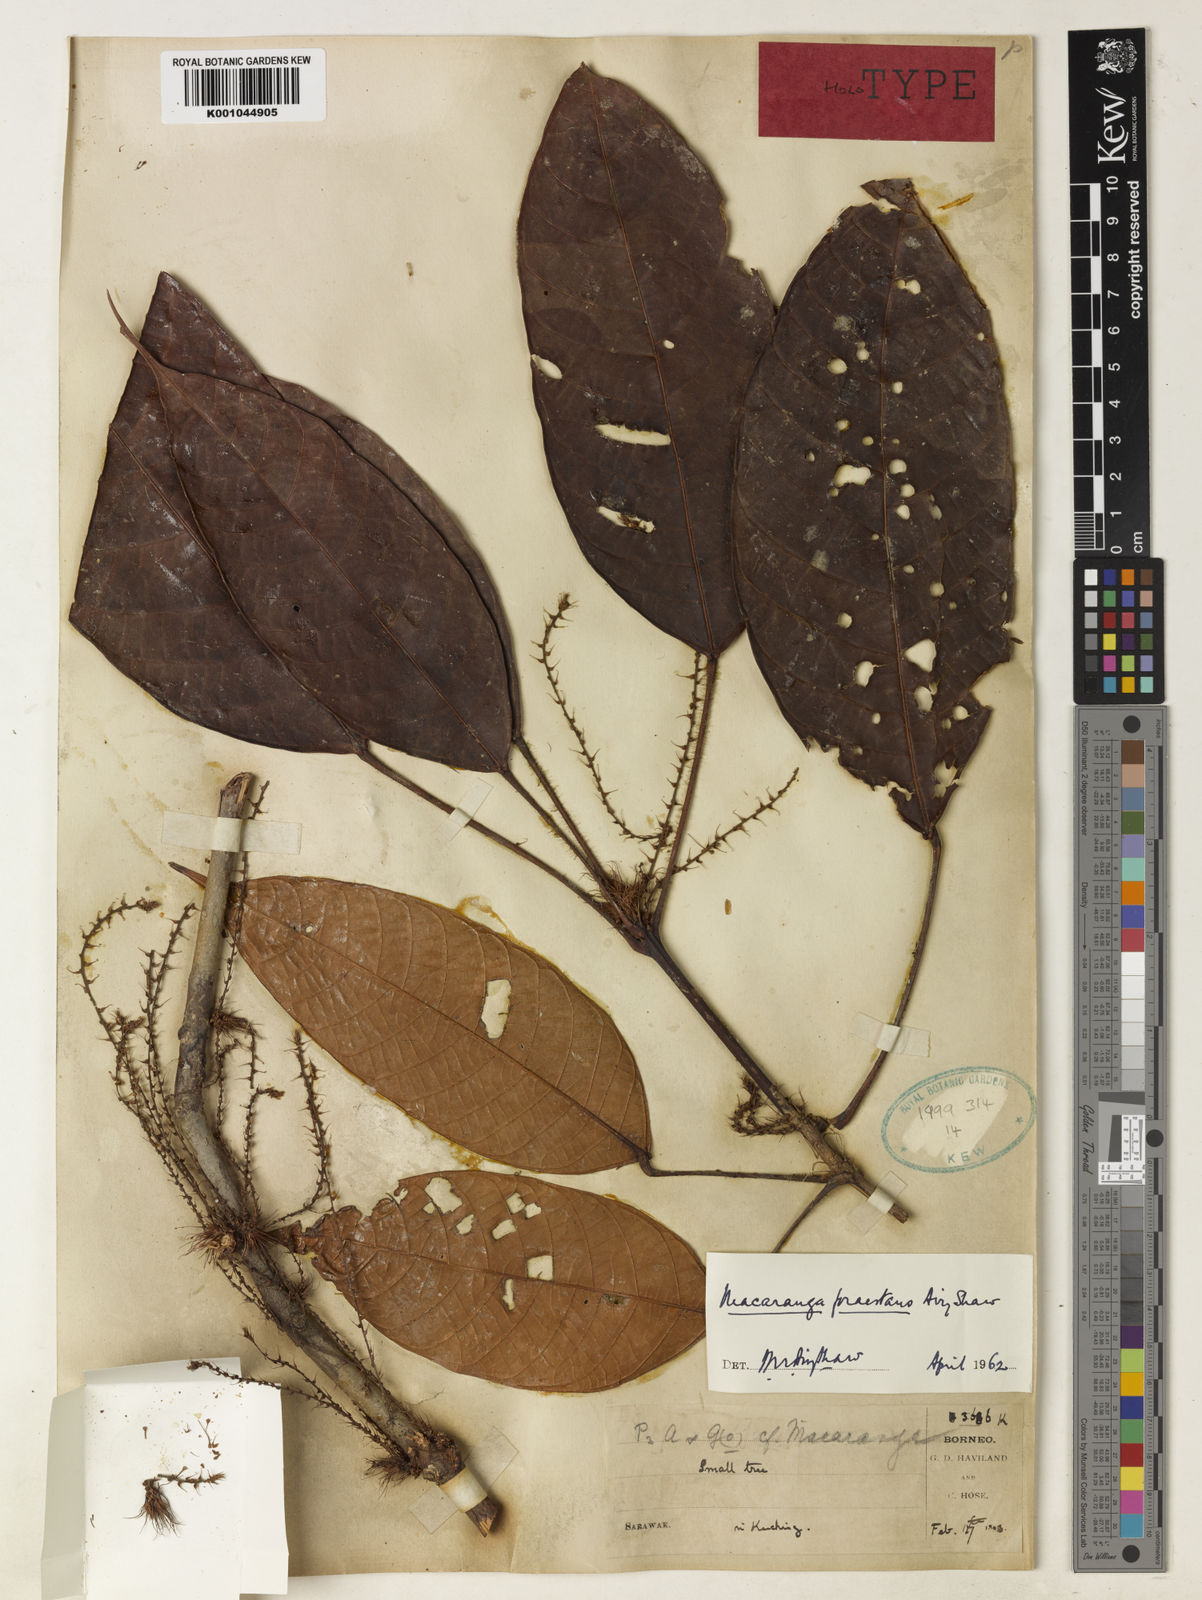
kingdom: Plantae
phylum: Tracheophyta
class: Magnoliopsida
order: Malpighiales
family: Euphorbiaceae
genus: Macaranga
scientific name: Macaranga praestans
